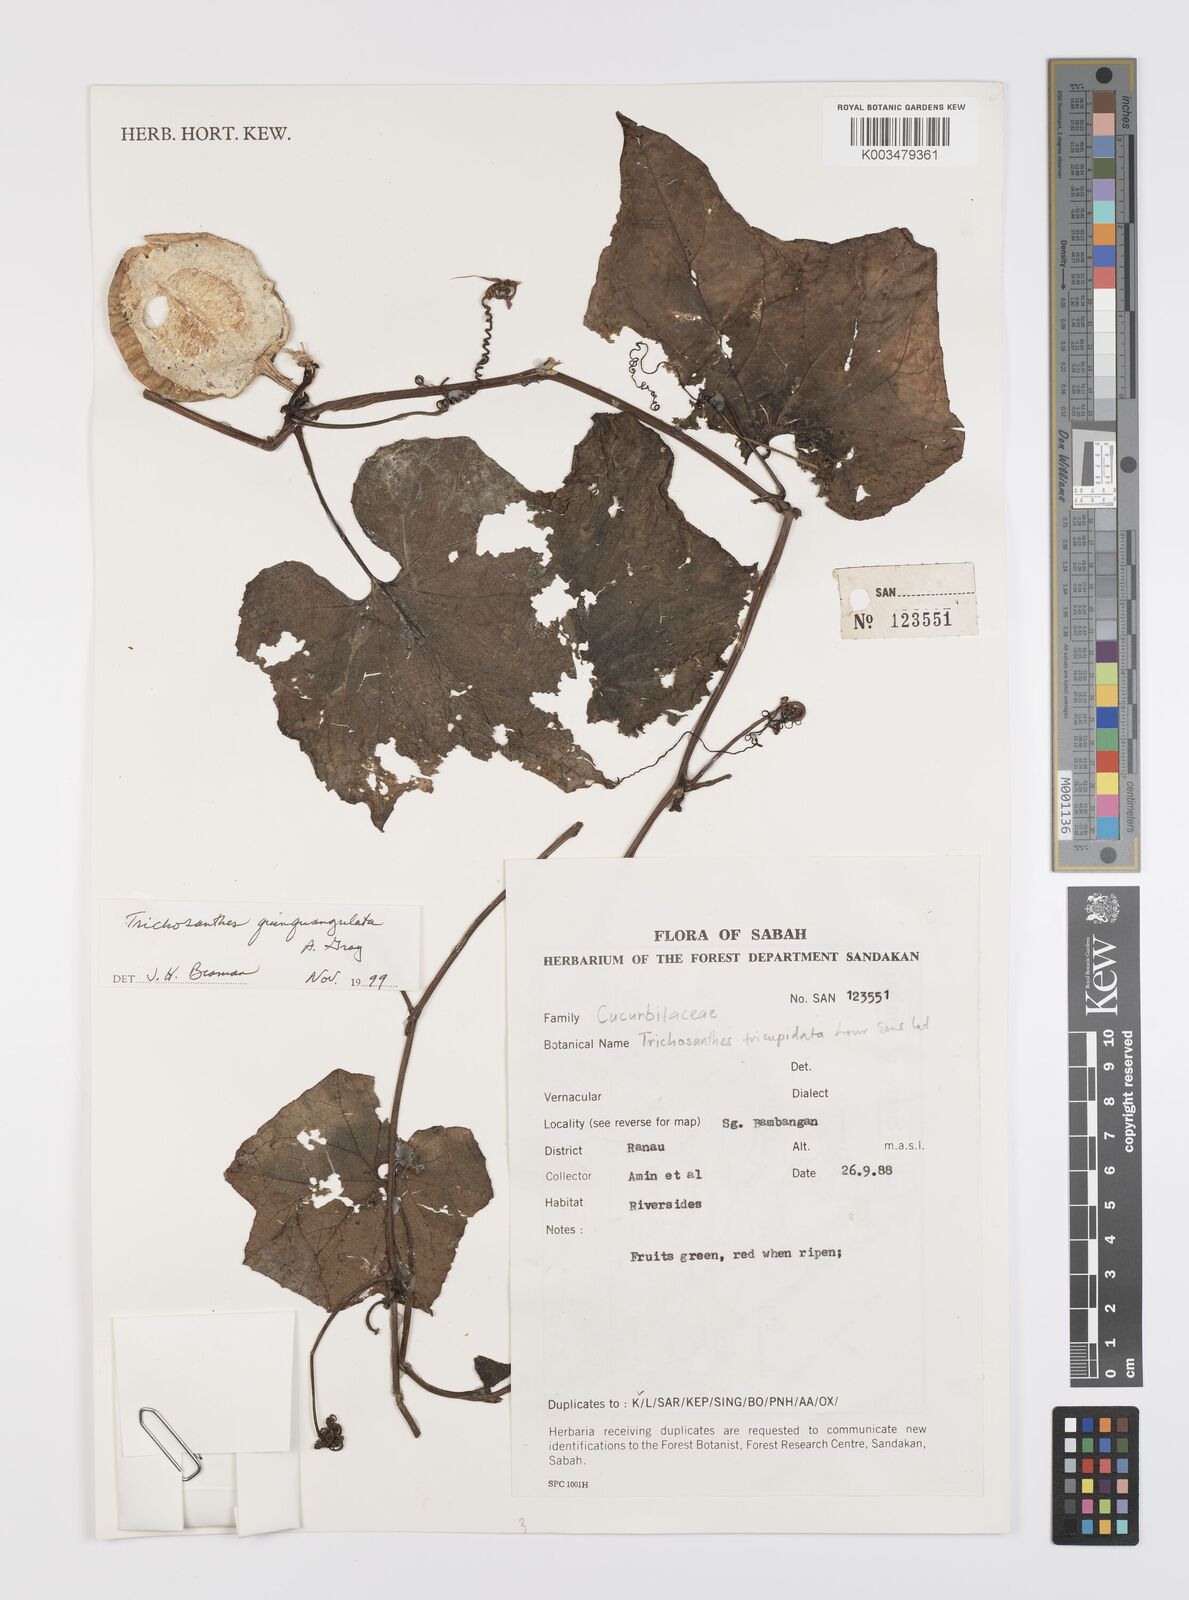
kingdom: Plantae
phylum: Tracheophyta
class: Magnoliopsida
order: Cucurbitales
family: Cucurbitaceae
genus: Trichosanthes
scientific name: Trichosanthes tricuspidata
